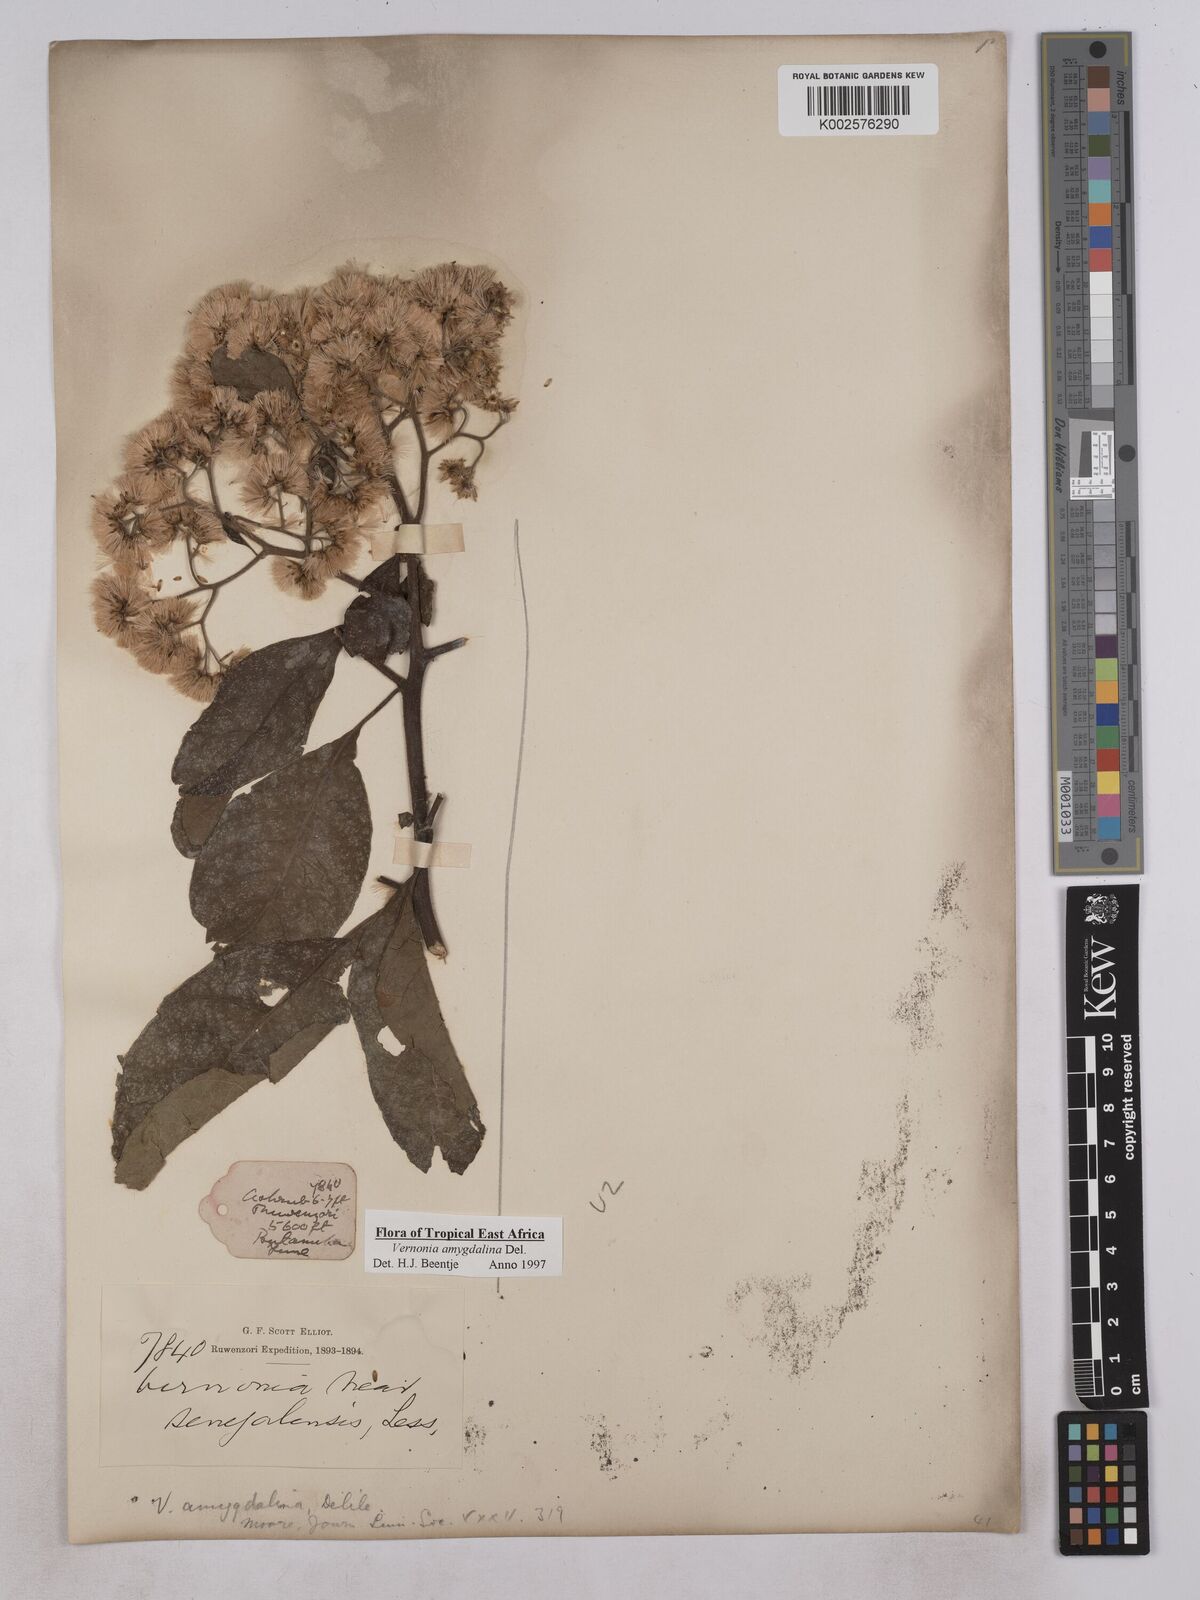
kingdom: Plantae
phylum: Tracheophyta
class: Magnoliopsida
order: Asterales
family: Asteraceae
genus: Gymnanthemum
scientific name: Gymnanthemum amygdalinum
